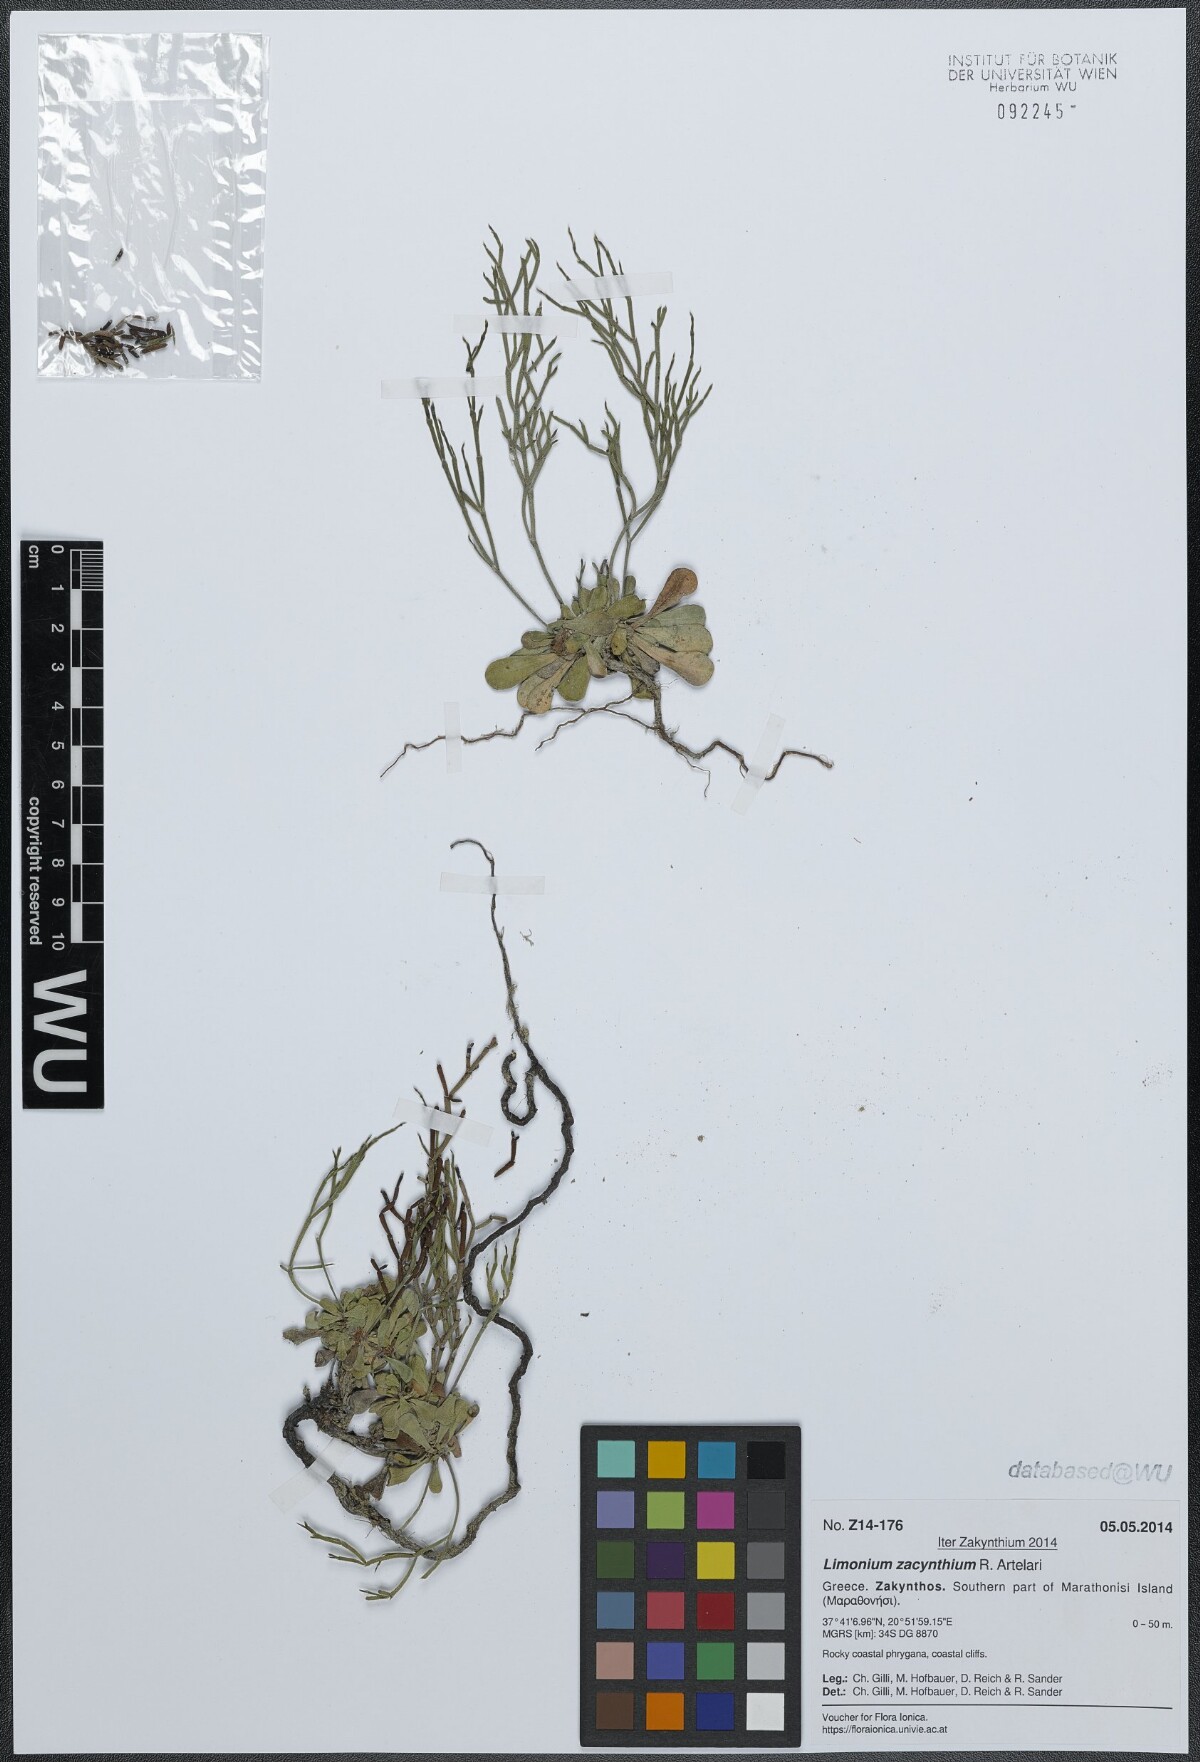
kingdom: Plantae
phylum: Tracheophyta
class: Magnoliopsida
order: Caryophyllales
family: Plumbaginaceae
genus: Limonium
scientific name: Limonium zacynthium
